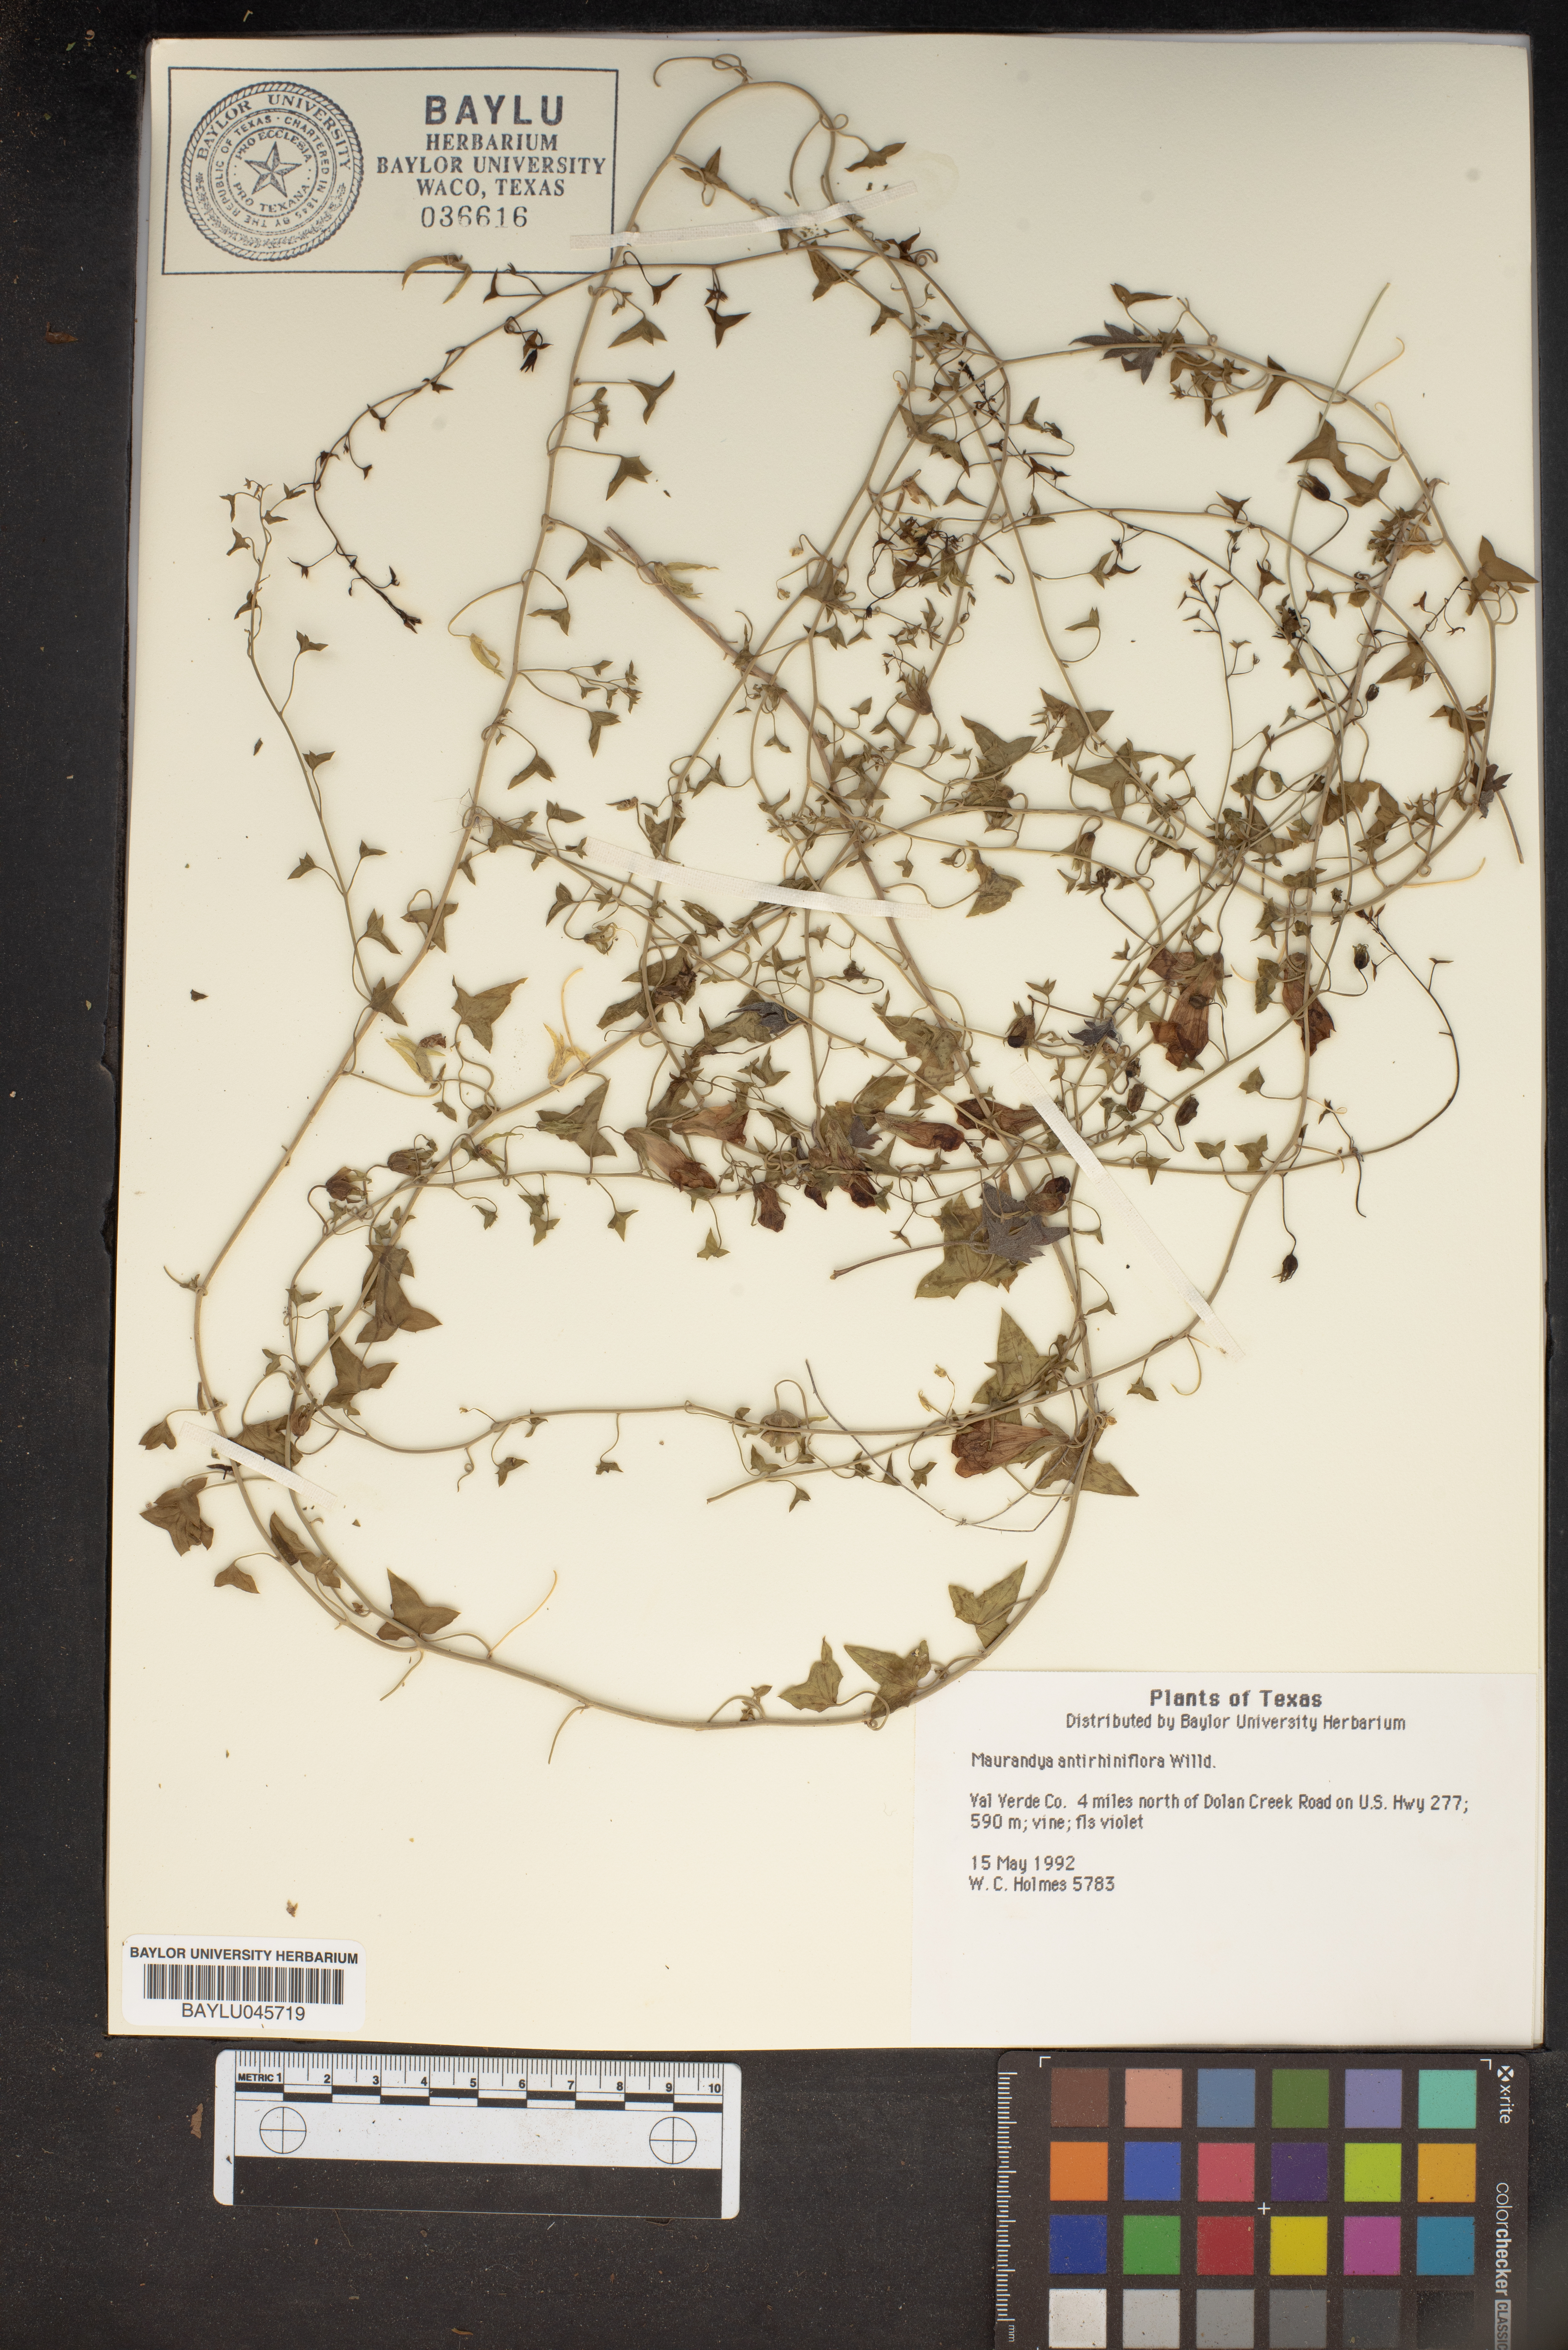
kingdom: Plantae
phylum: Tracheophyta
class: Magnoliopsida
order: Lamiales
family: Plantaginaceae
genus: Maurandella
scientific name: Maurandella antirrhiniflora
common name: Violet twining-snapdragon
